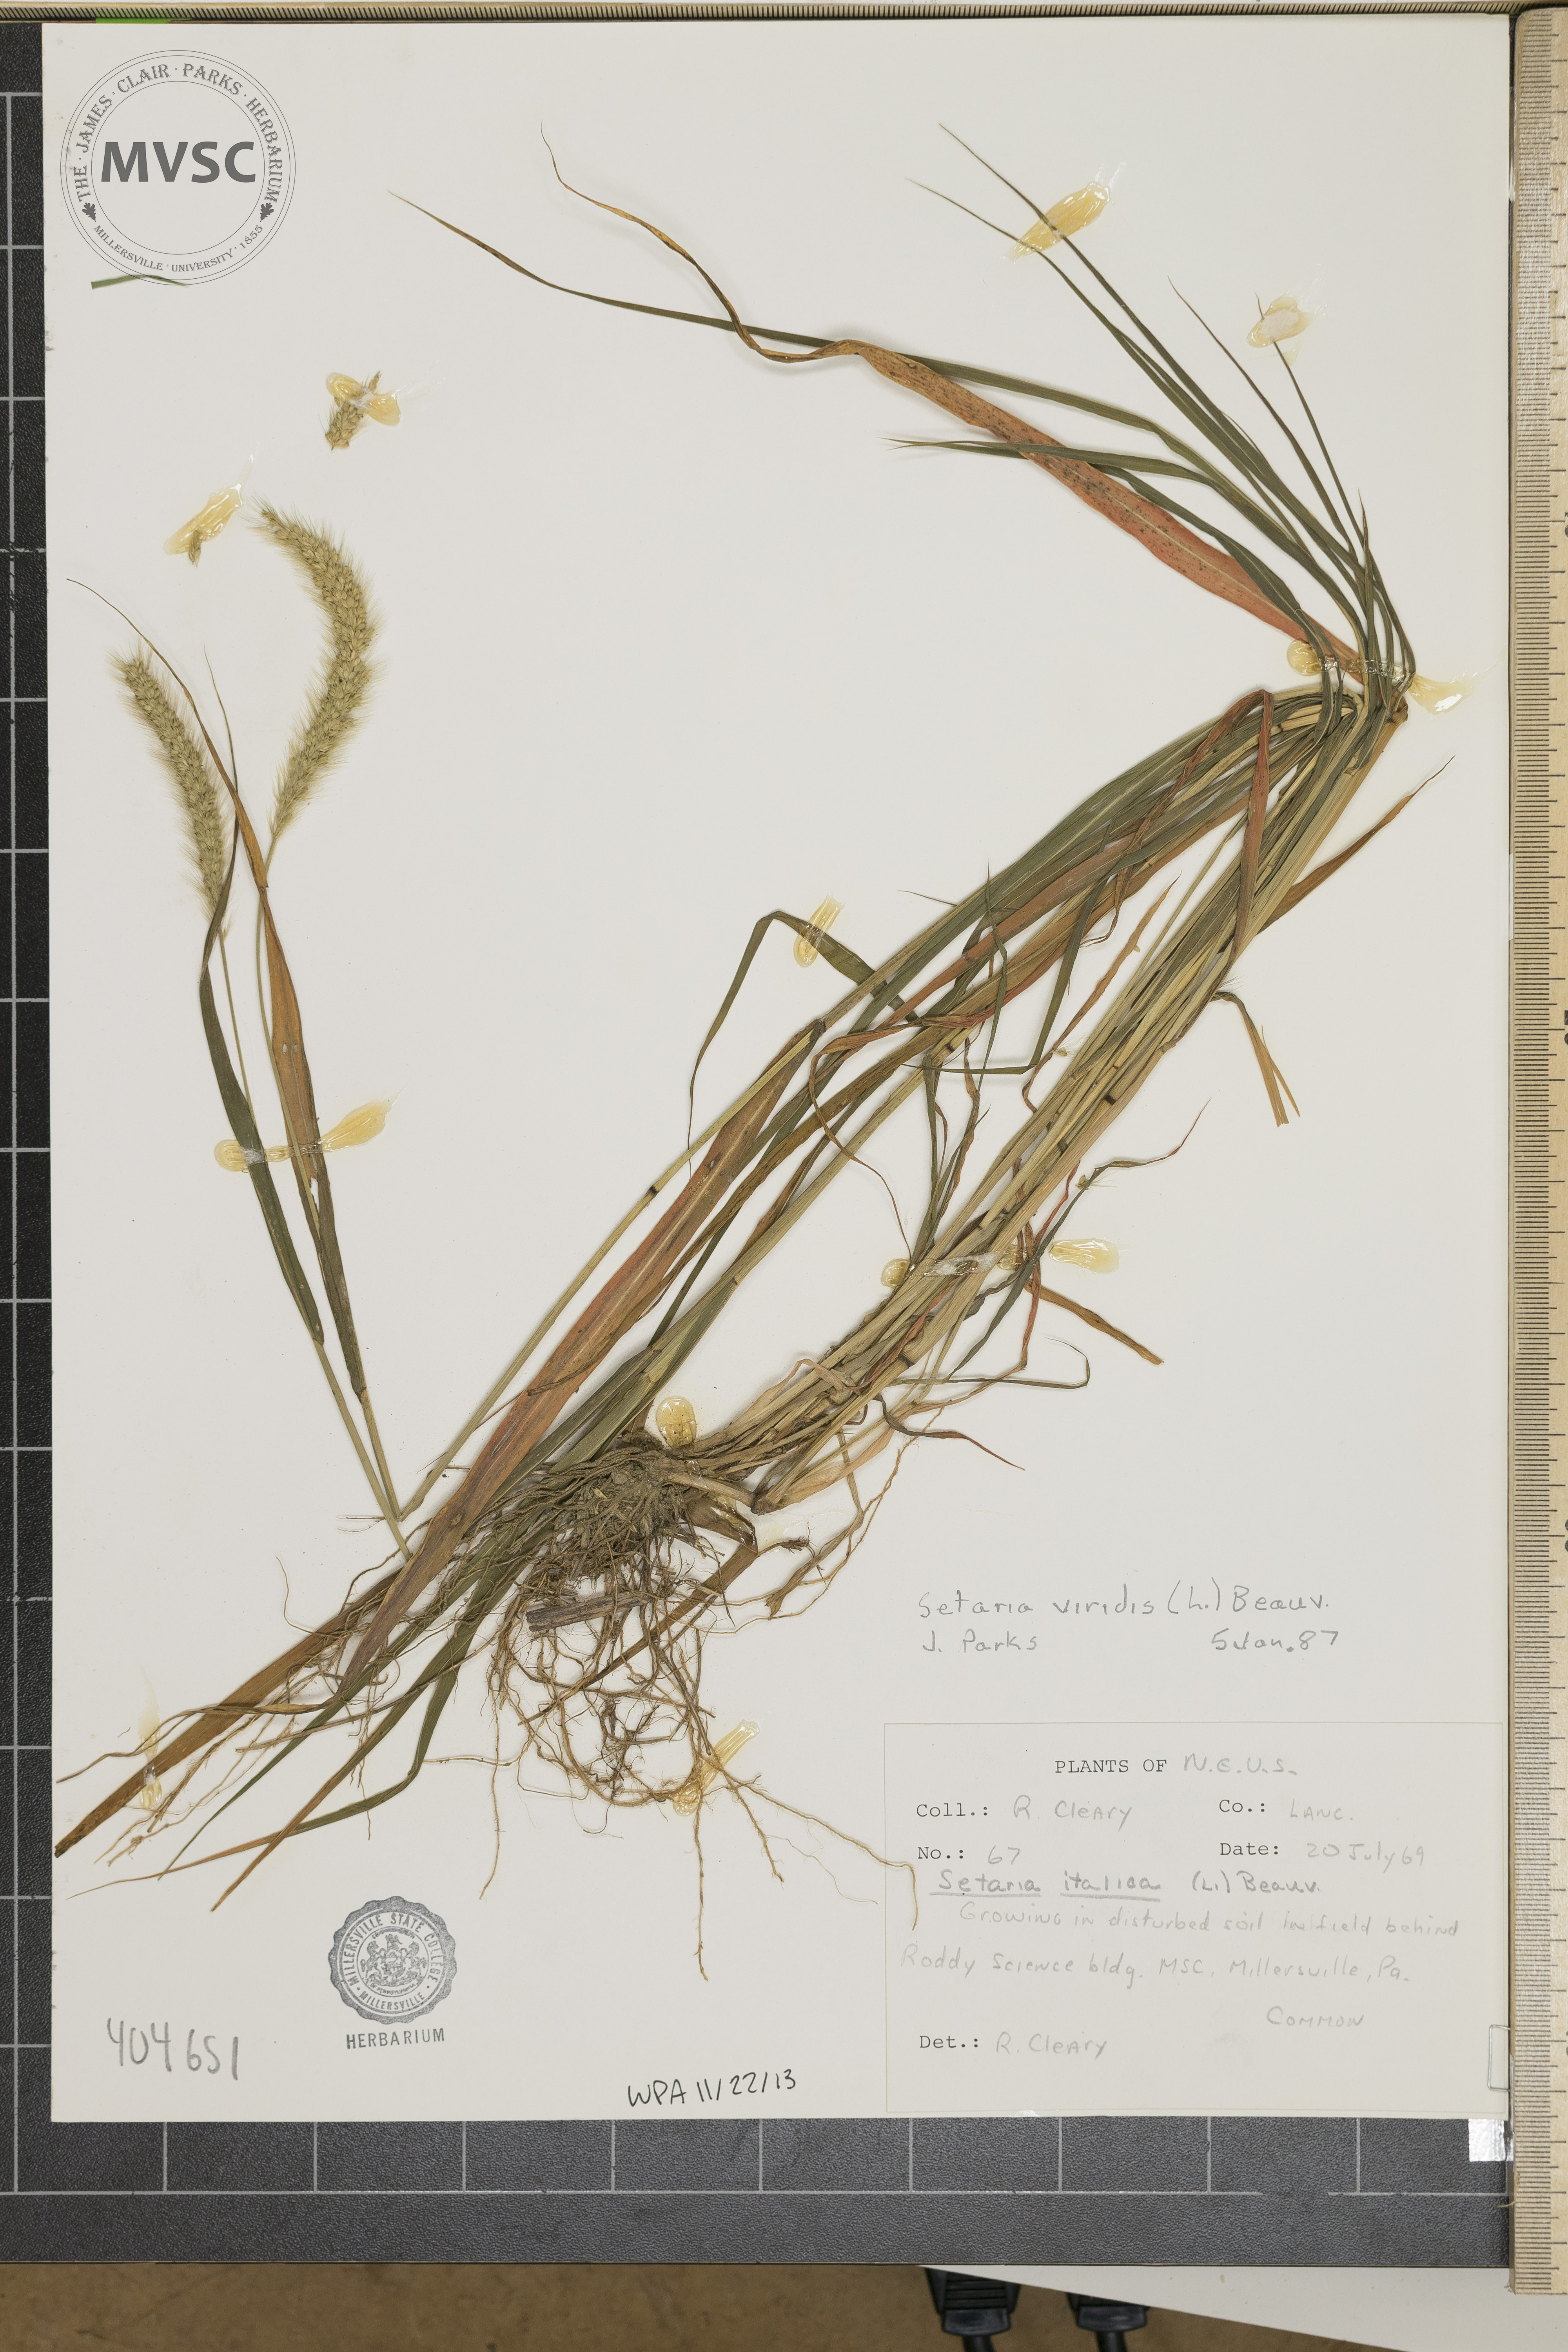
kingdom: Plantae
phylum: Tracheophyta
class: Liliopsida
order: Poales
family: Poaceae
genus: Setaria
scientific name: Setaria viridis
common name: Green bristlegrass
